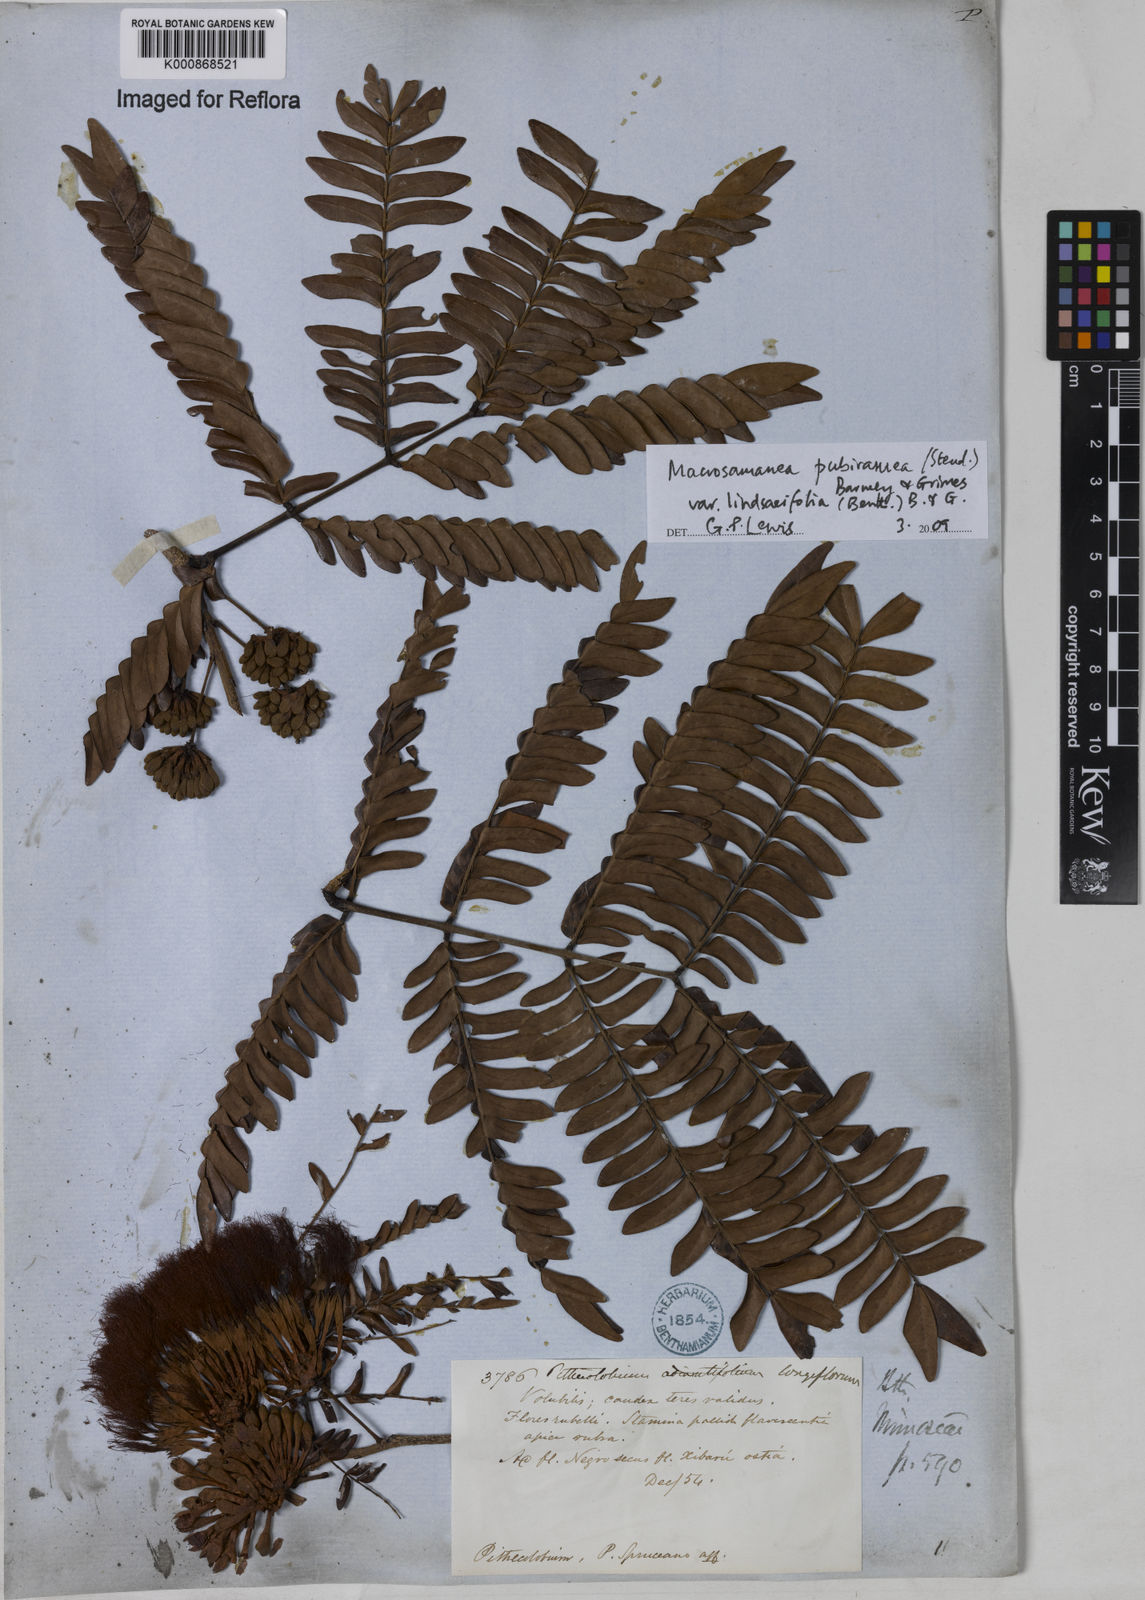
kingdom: Plantae
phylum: Tracheophyta
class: Magnoliopsida
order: Fabales
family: Fabaceae
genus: Macrosamanea
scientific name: Macrosamanea pubiramea
